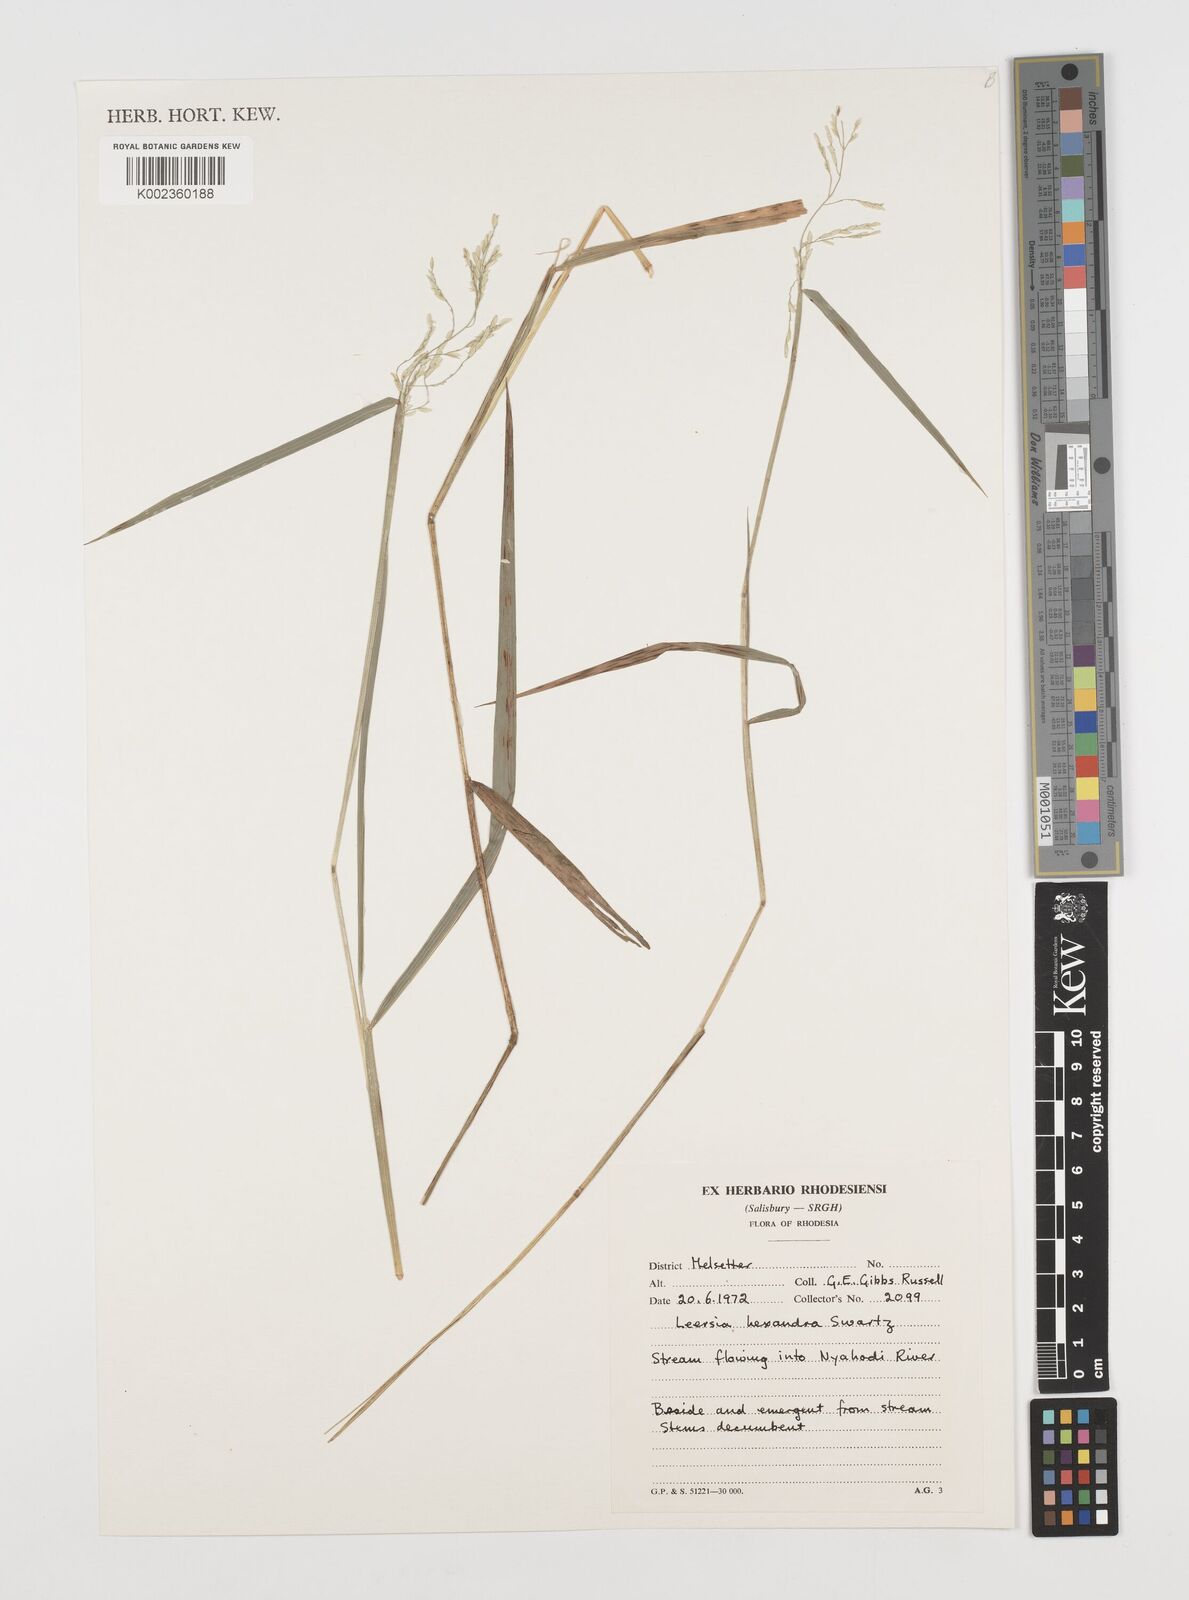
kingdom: Plantae
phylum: Tracheophyta
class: Liliopsida
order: Poales
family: Poaceae
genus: Leersia
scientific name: Leersia hexandra
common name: Southern cut grass
